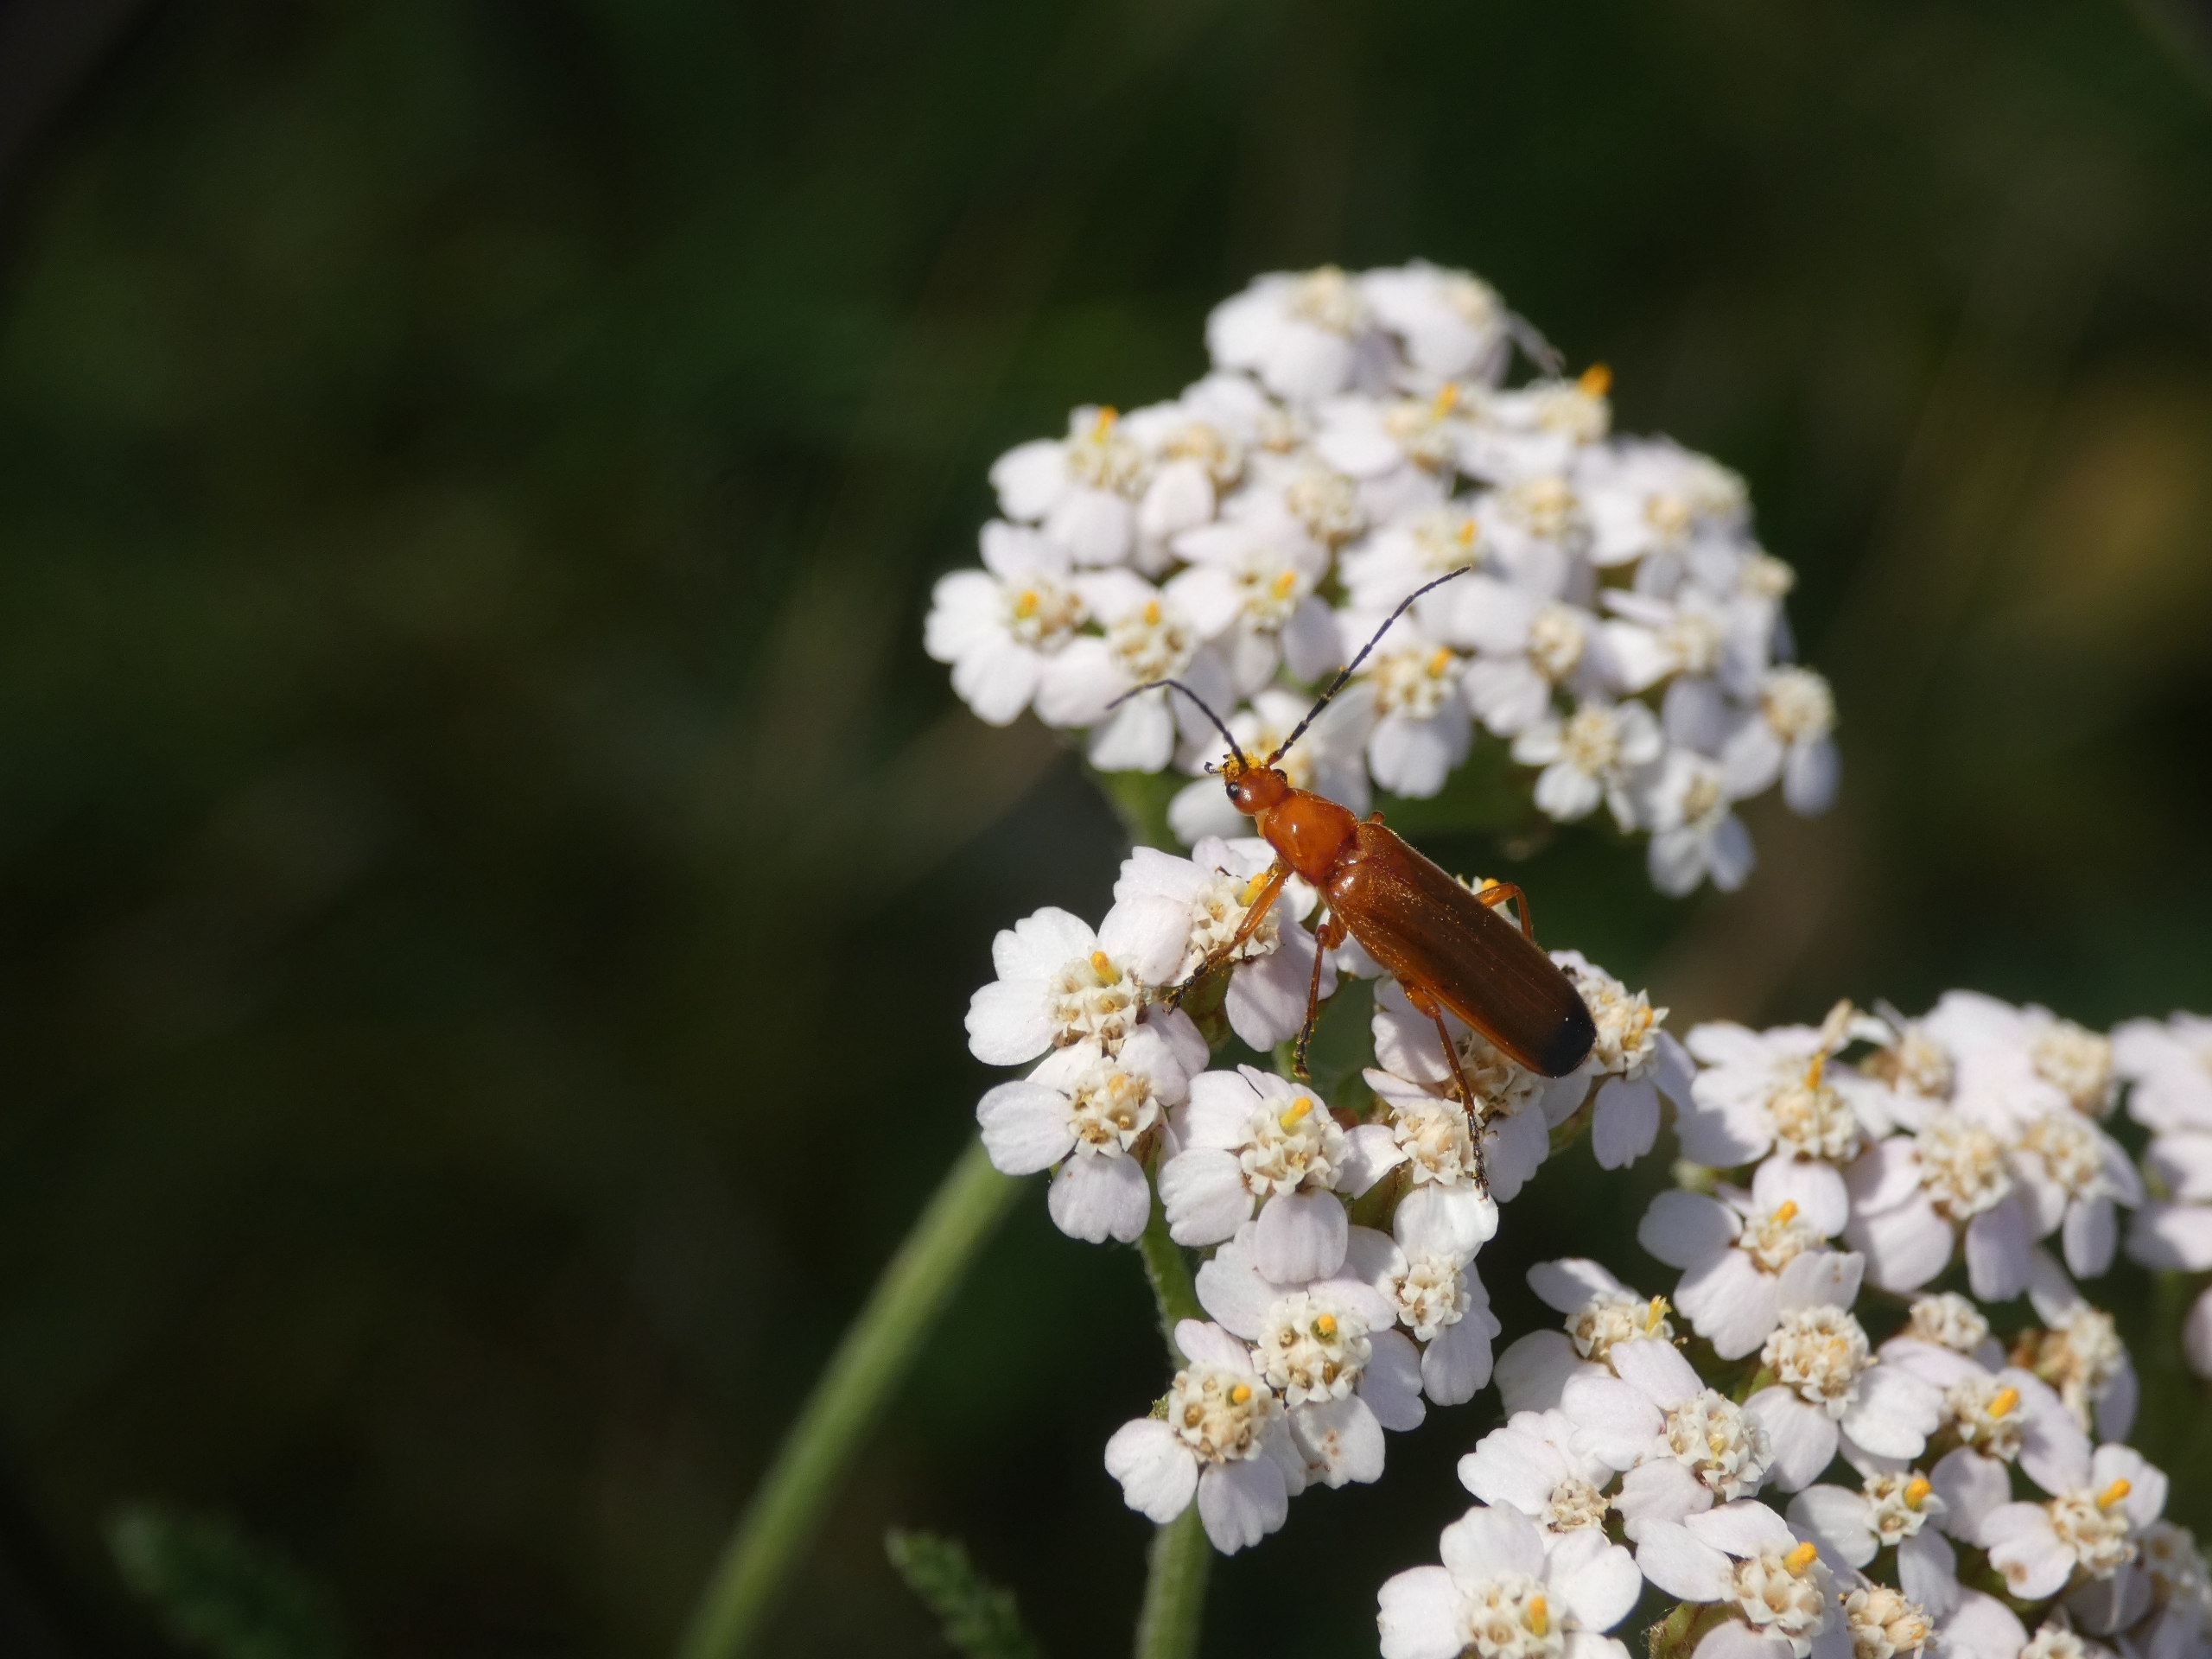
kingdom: Animalia
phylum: Arthropoda
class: Insecta
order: Coleoptera
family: Cantharidae
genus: Rhagonycha
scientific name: Rhagonycha fulva
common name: Præstebille
